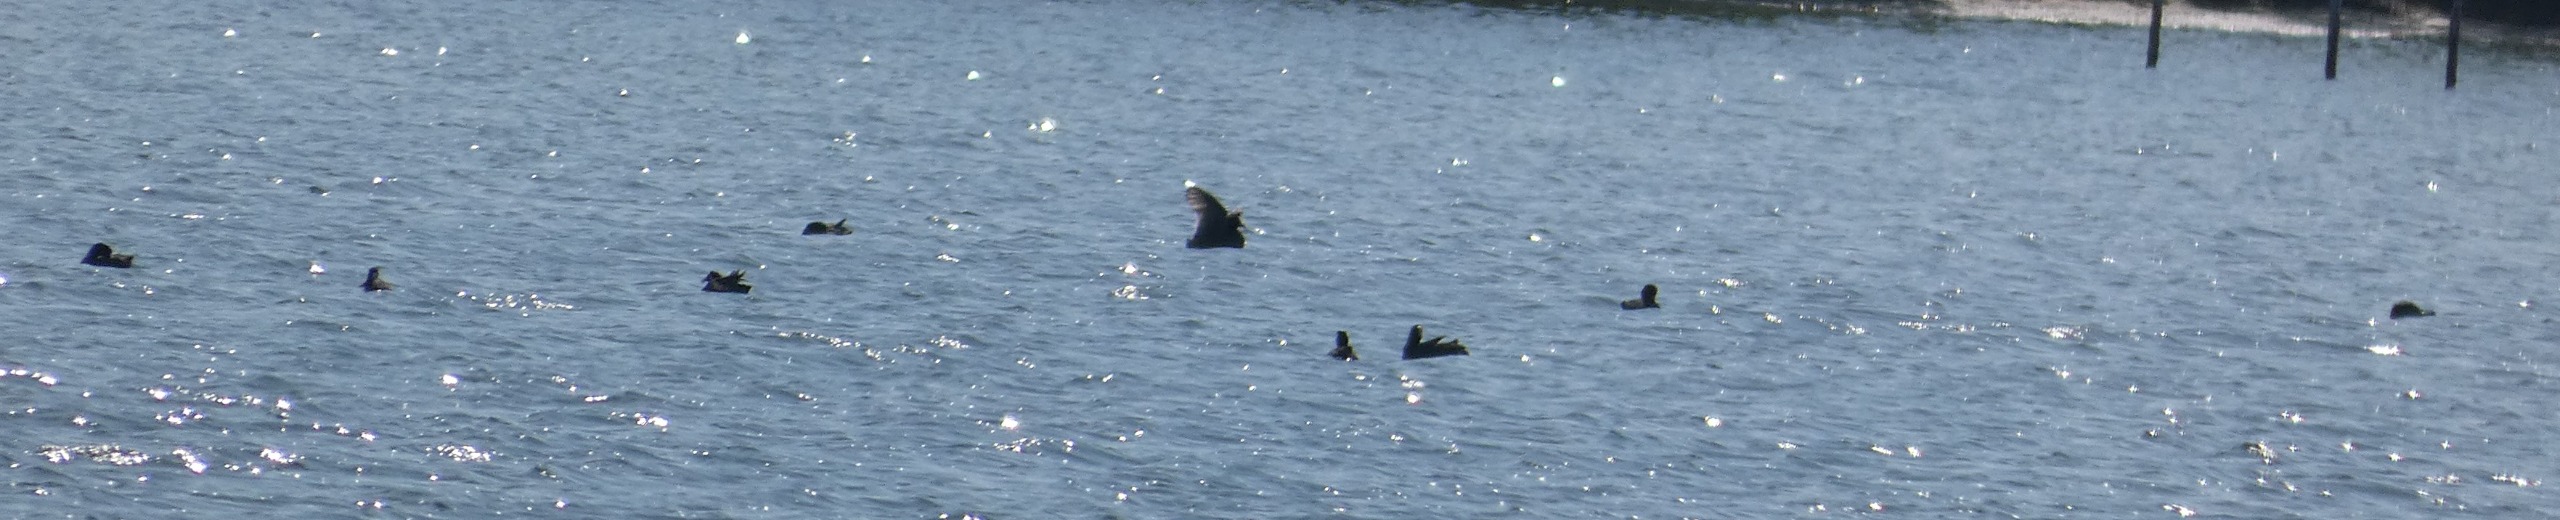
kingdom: Animalia
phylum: Chordata
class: Aves
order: Gruiformes
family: Rallidae
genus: Fulica
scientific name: Fulica atra
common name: Blishøne
